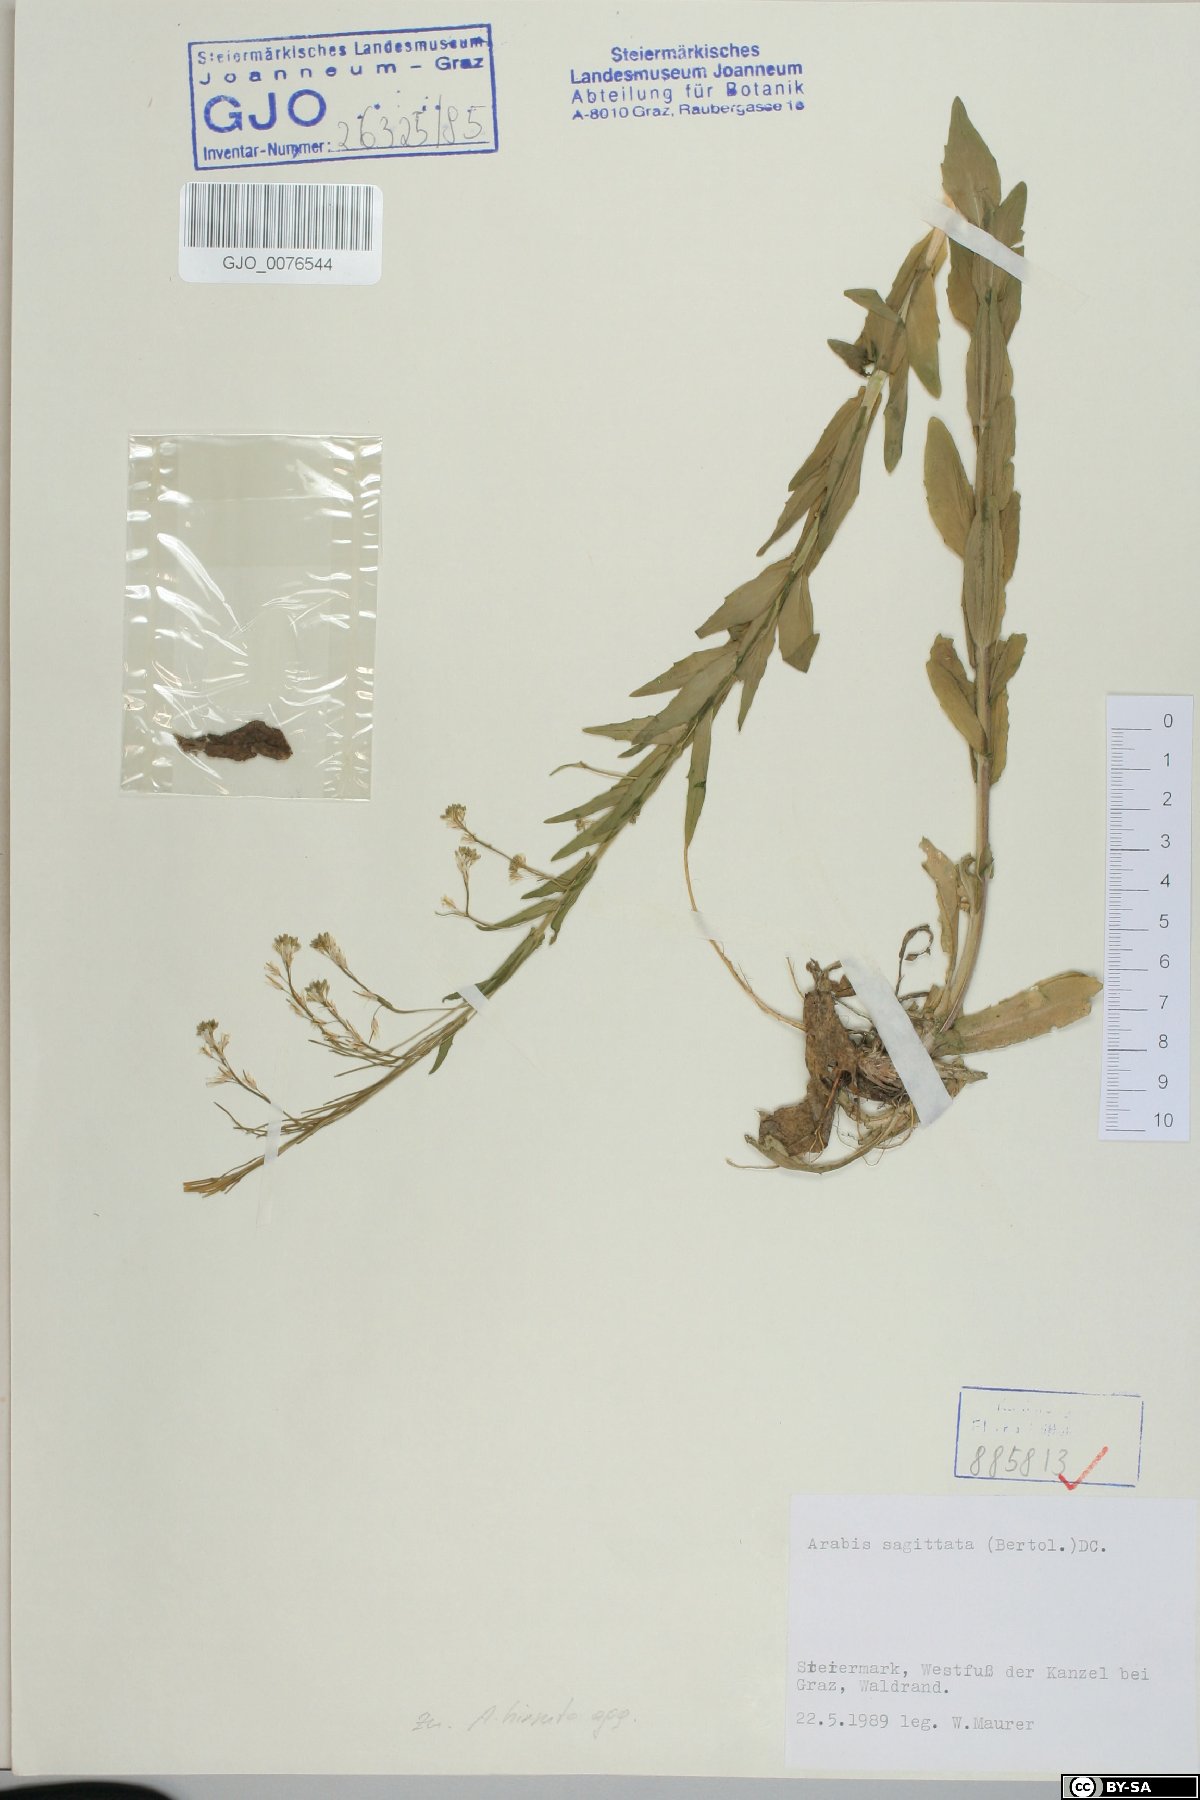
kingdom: Plantae
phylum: Tracheophyta
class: Magnoliopsida
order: Brassicales
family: Brassicaceae
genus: Arabis
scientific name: Arabis sagittata
